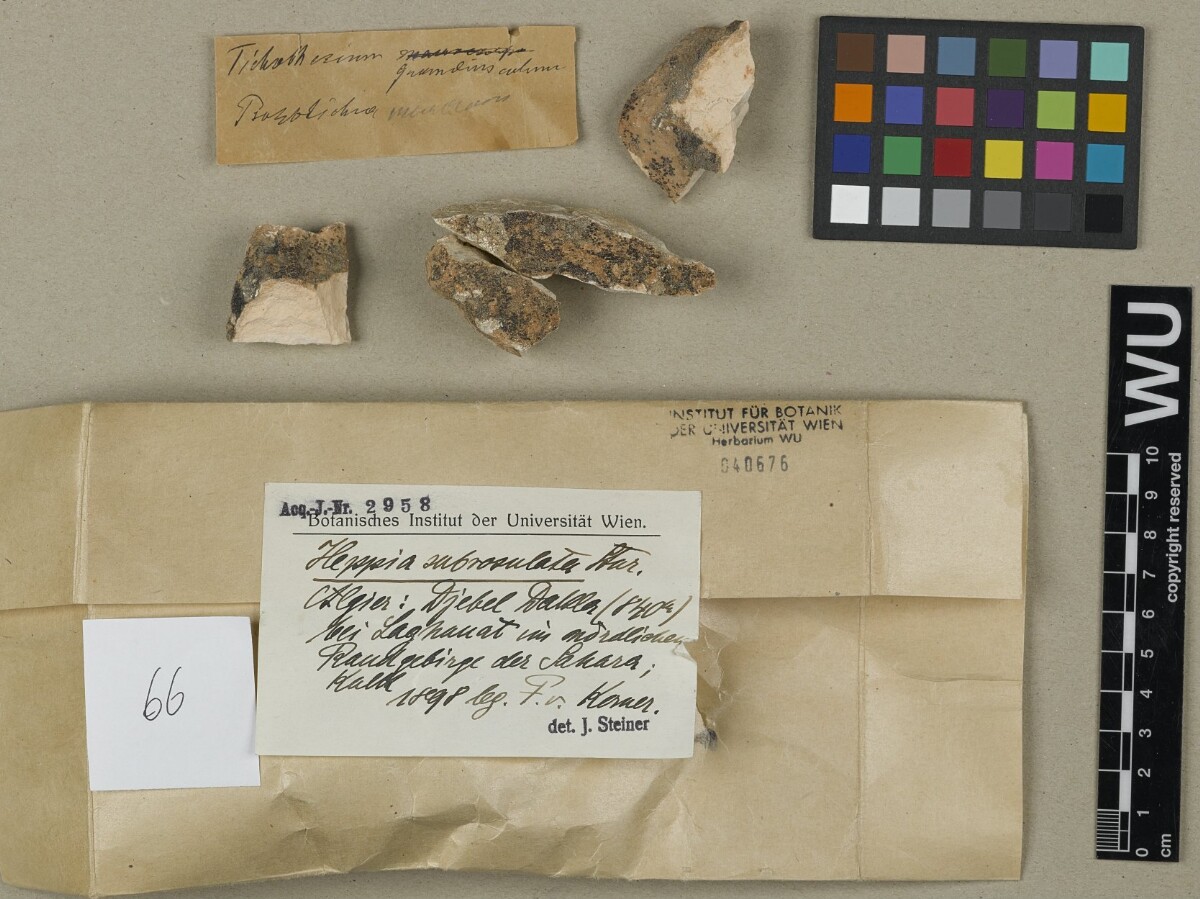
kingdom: Fungi
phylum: Ascomycota
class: Lichinomycetes
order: Lichinales
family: Lichinaceae
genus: Heppia
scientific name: Heppia
